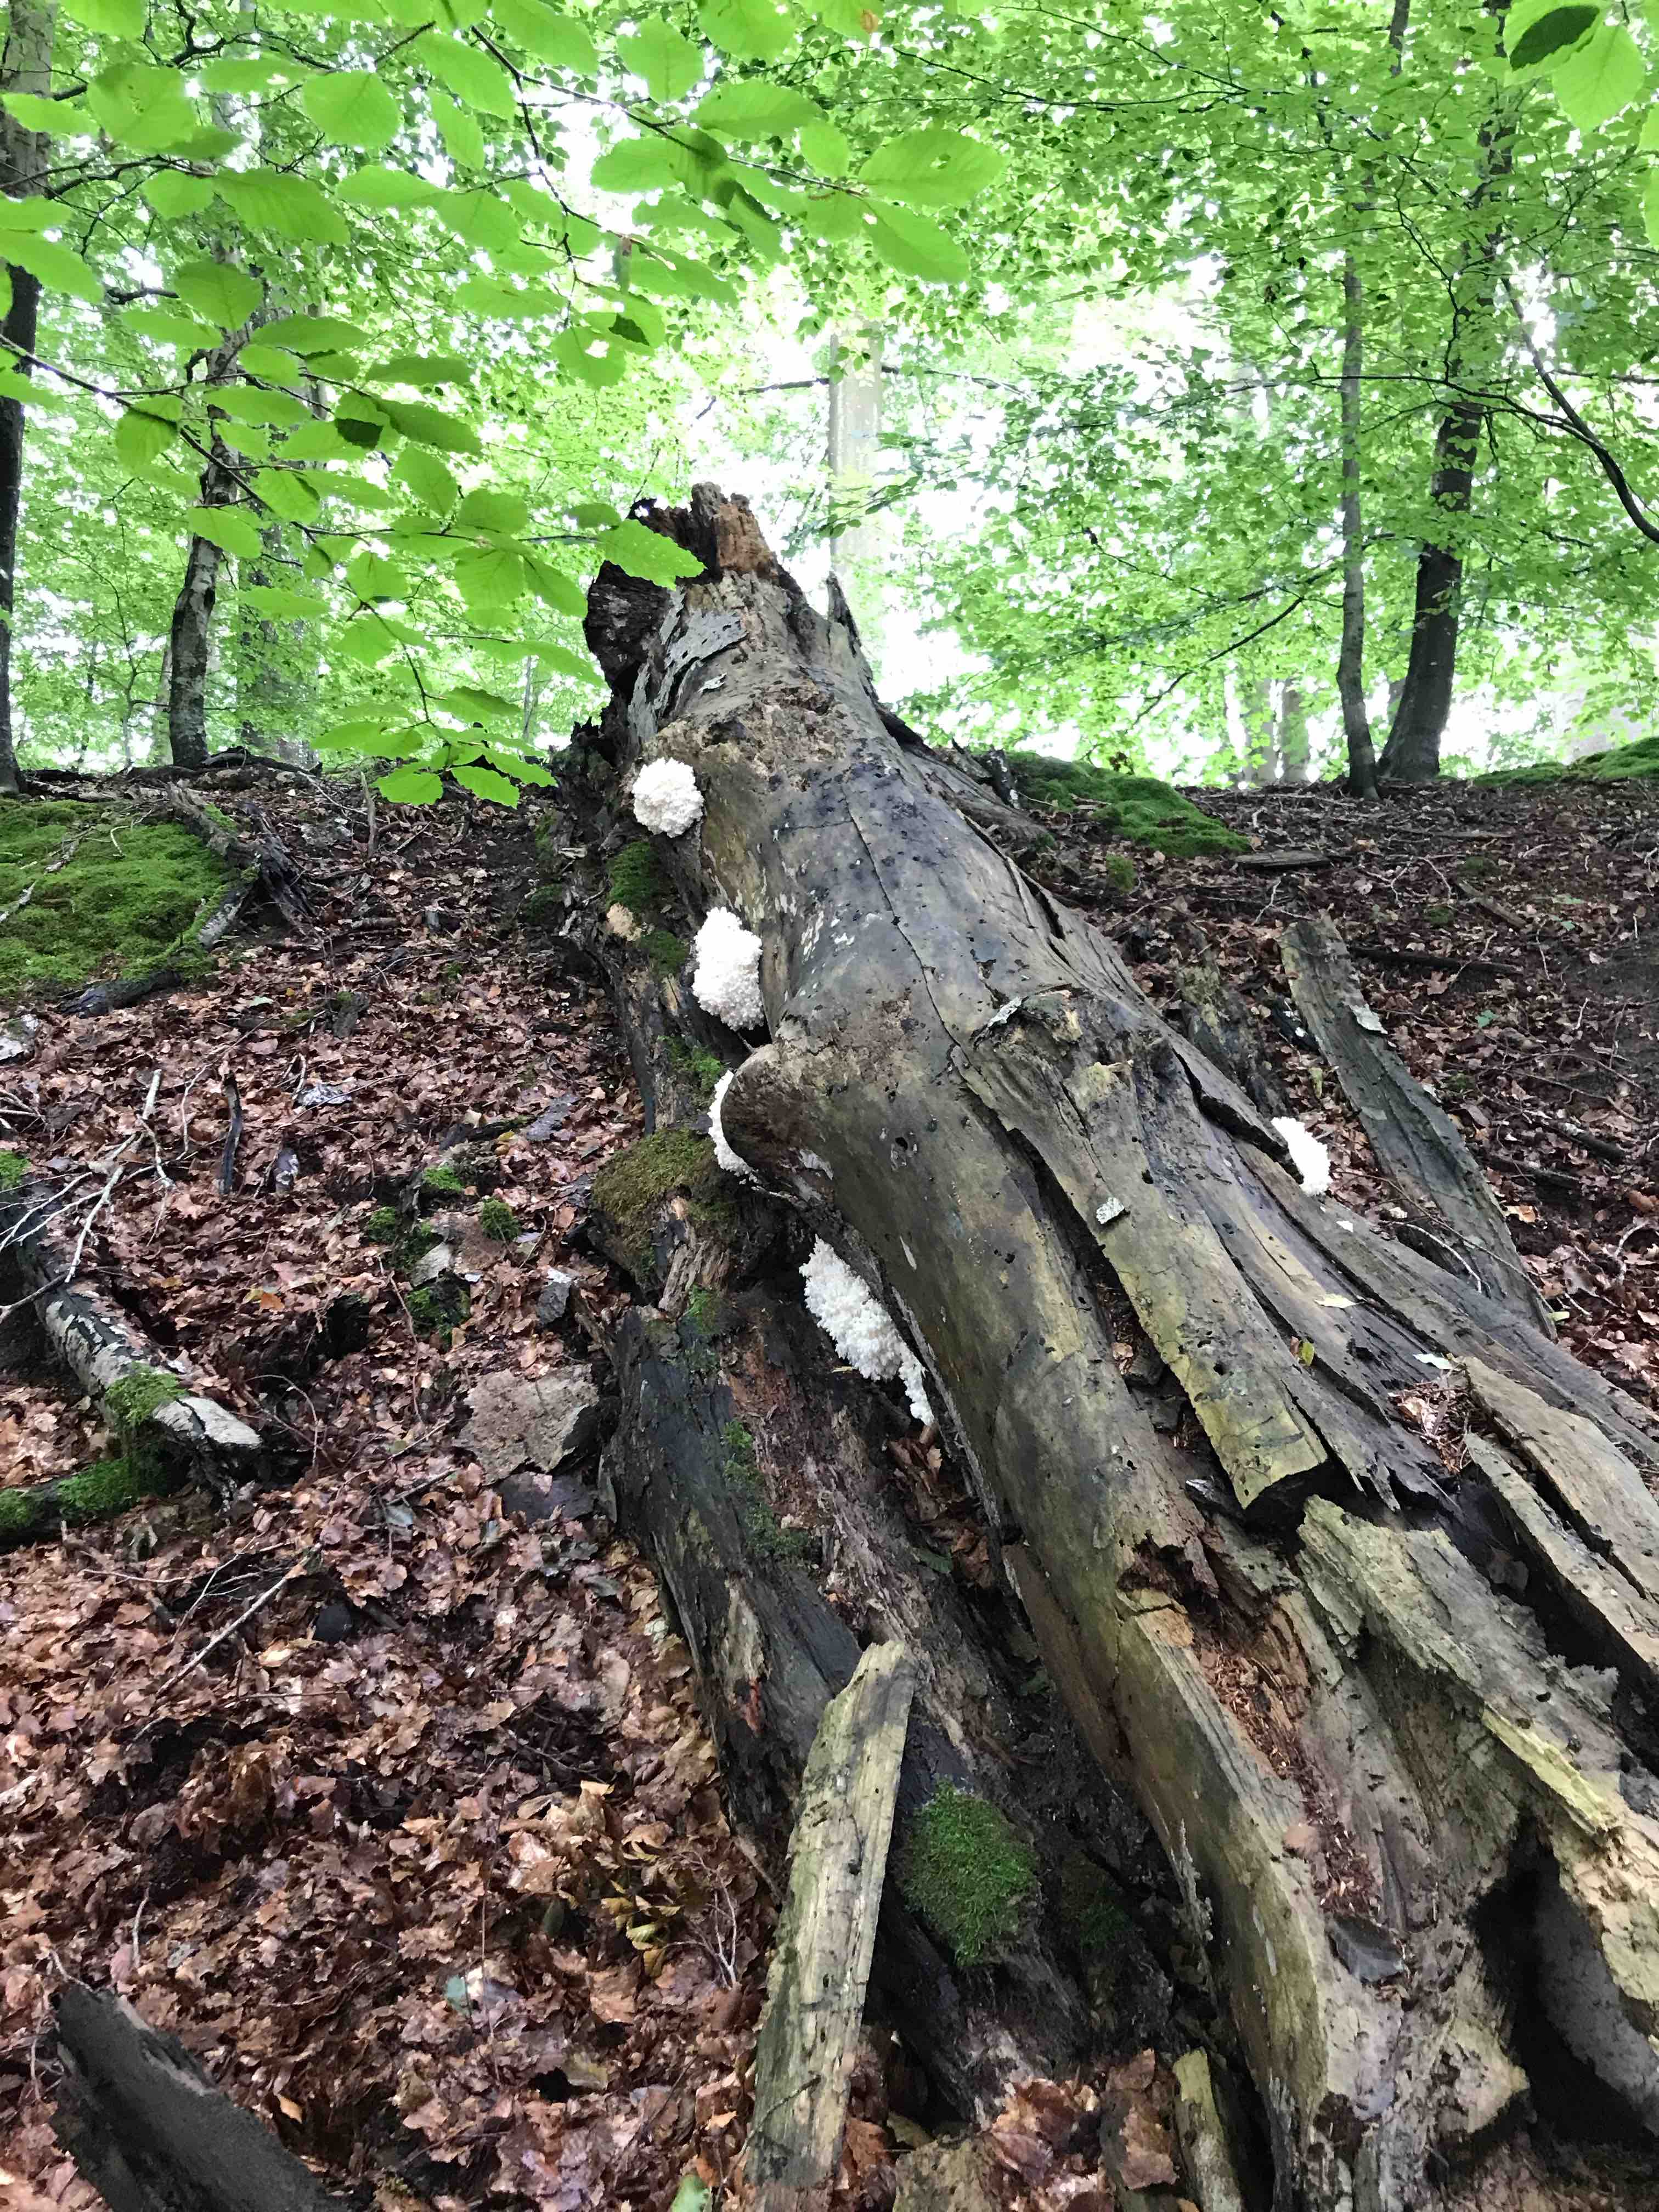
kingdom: Fungi
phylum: Basidiomycota
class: Agaricomycetes
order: Russulales
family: Hericiaceae
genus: Hericium
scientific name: Hericium coralloides
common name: koralpigsvamp
